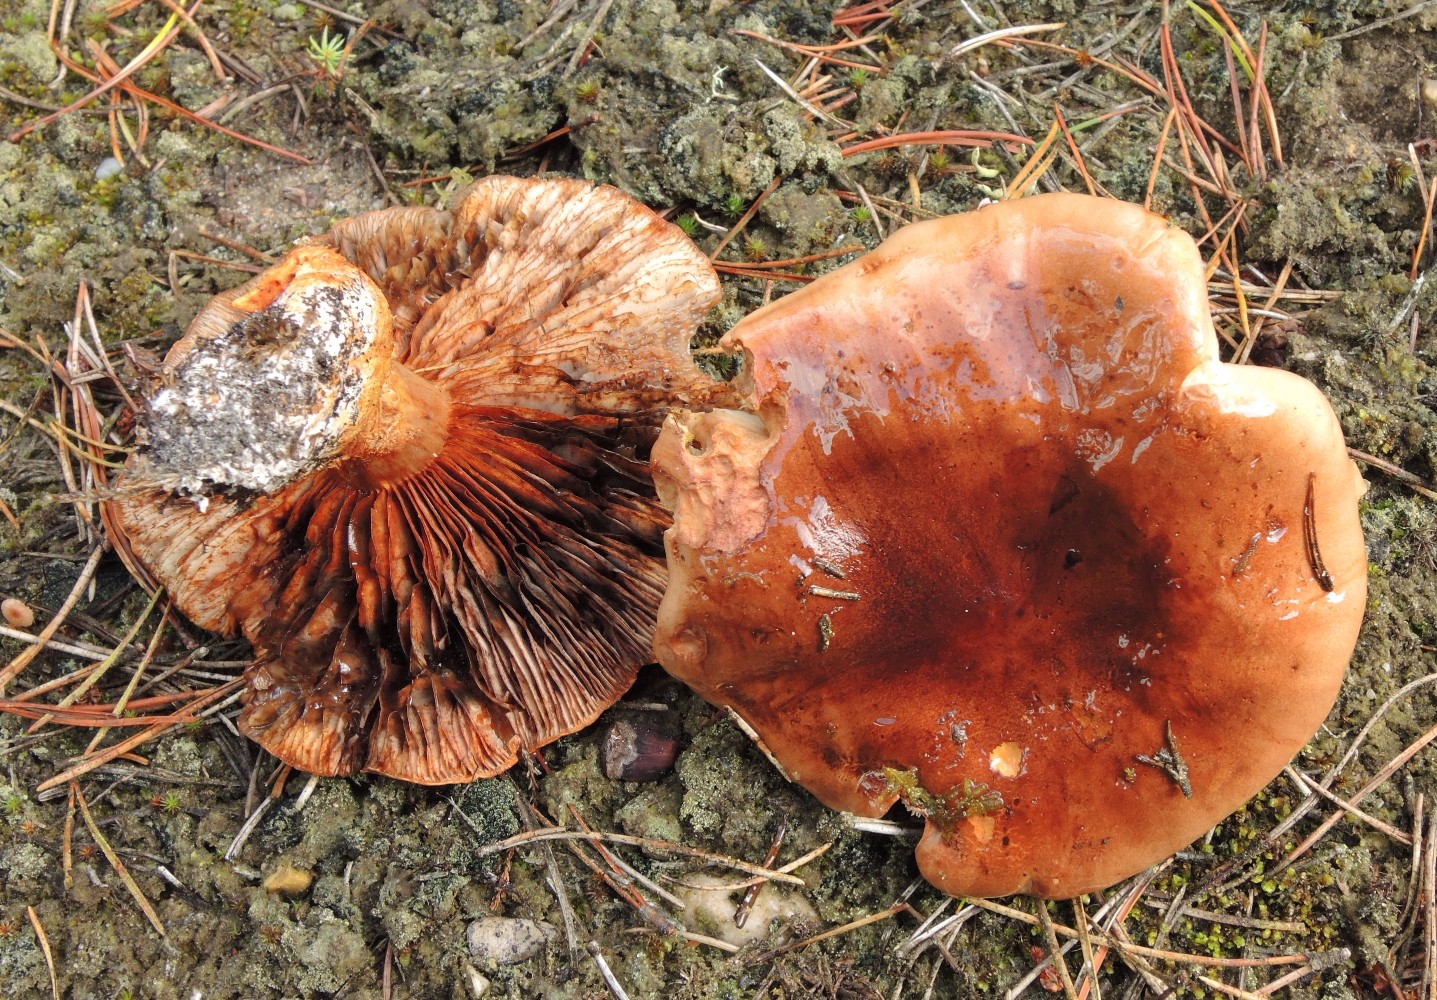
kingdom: Fungi
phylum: Basidiomycota
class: Agaricomycetes
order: Agaricales
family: Tricholomataceae
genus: Tricholoma
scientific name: Tricholoma pessundatum
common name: dråbeplettet ridderhat
